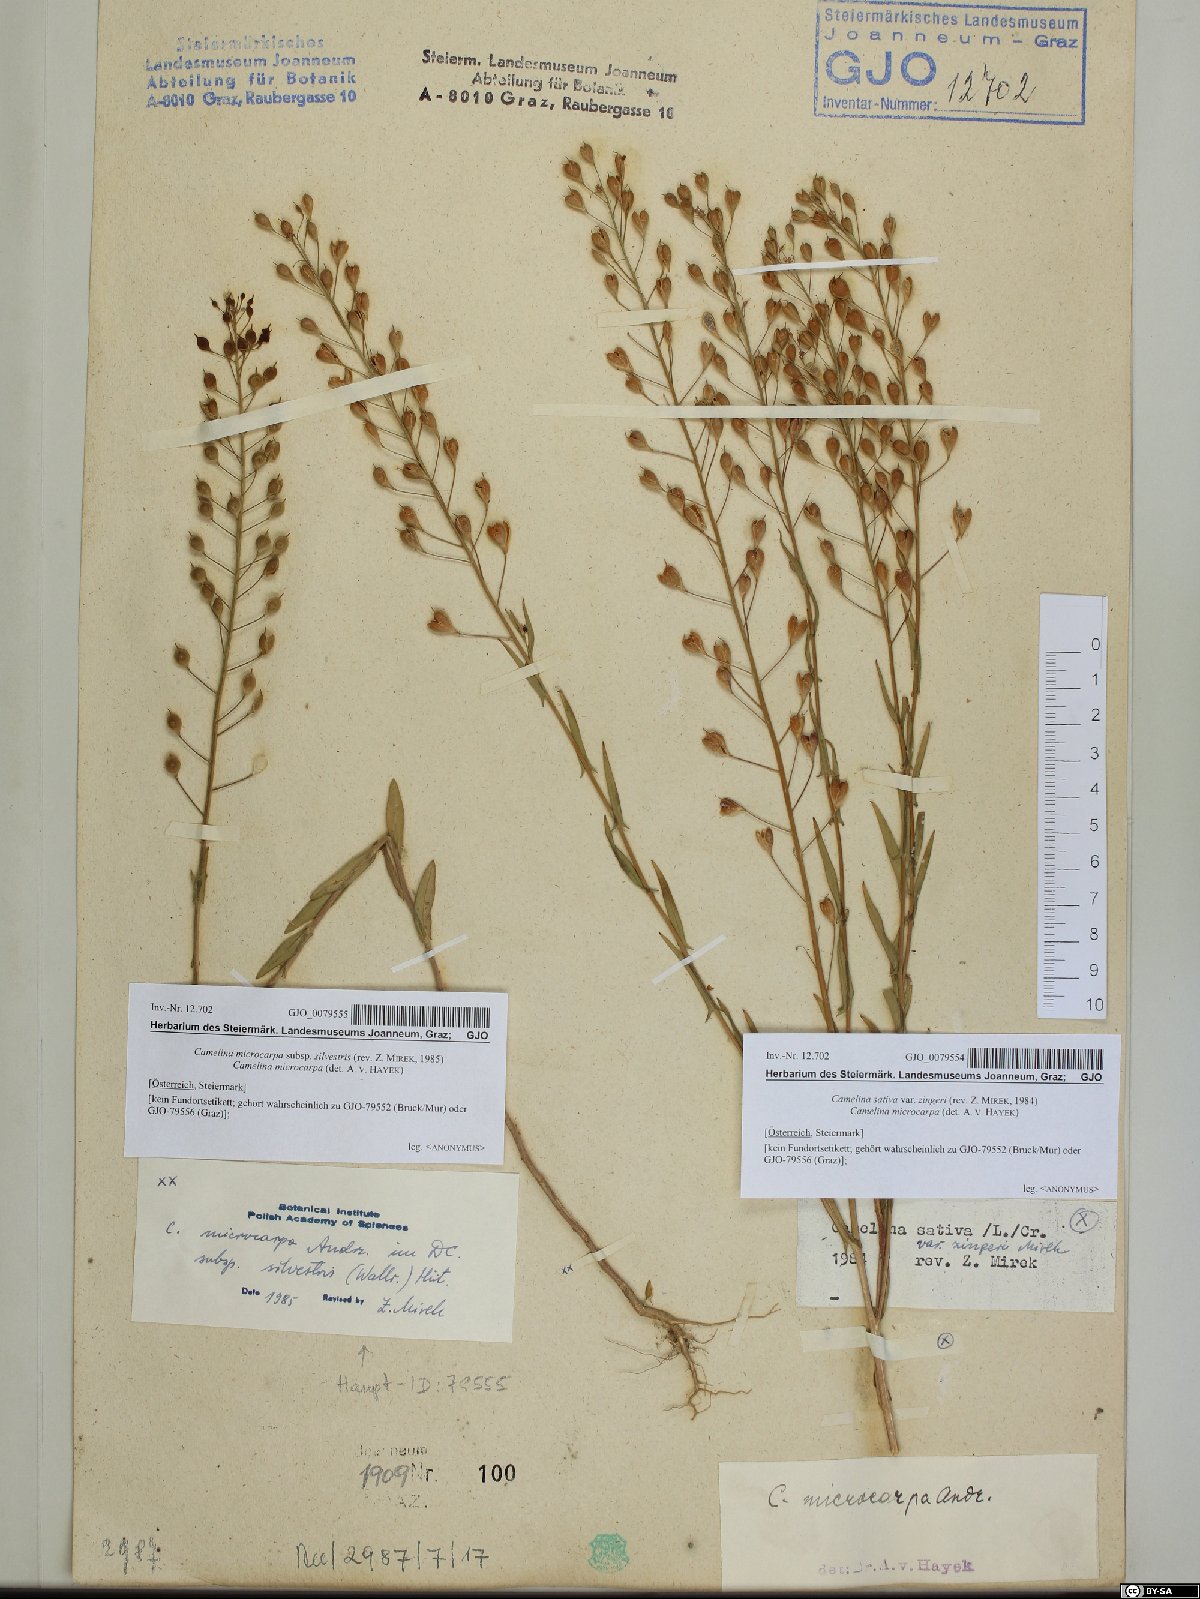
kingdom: Plantae
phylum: Tracheophyta
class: Magnoliopsida
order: Brassicales
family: Brassicaceae
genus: Camelina
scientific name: Camelina sativa
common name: Gold-of-pleasure
